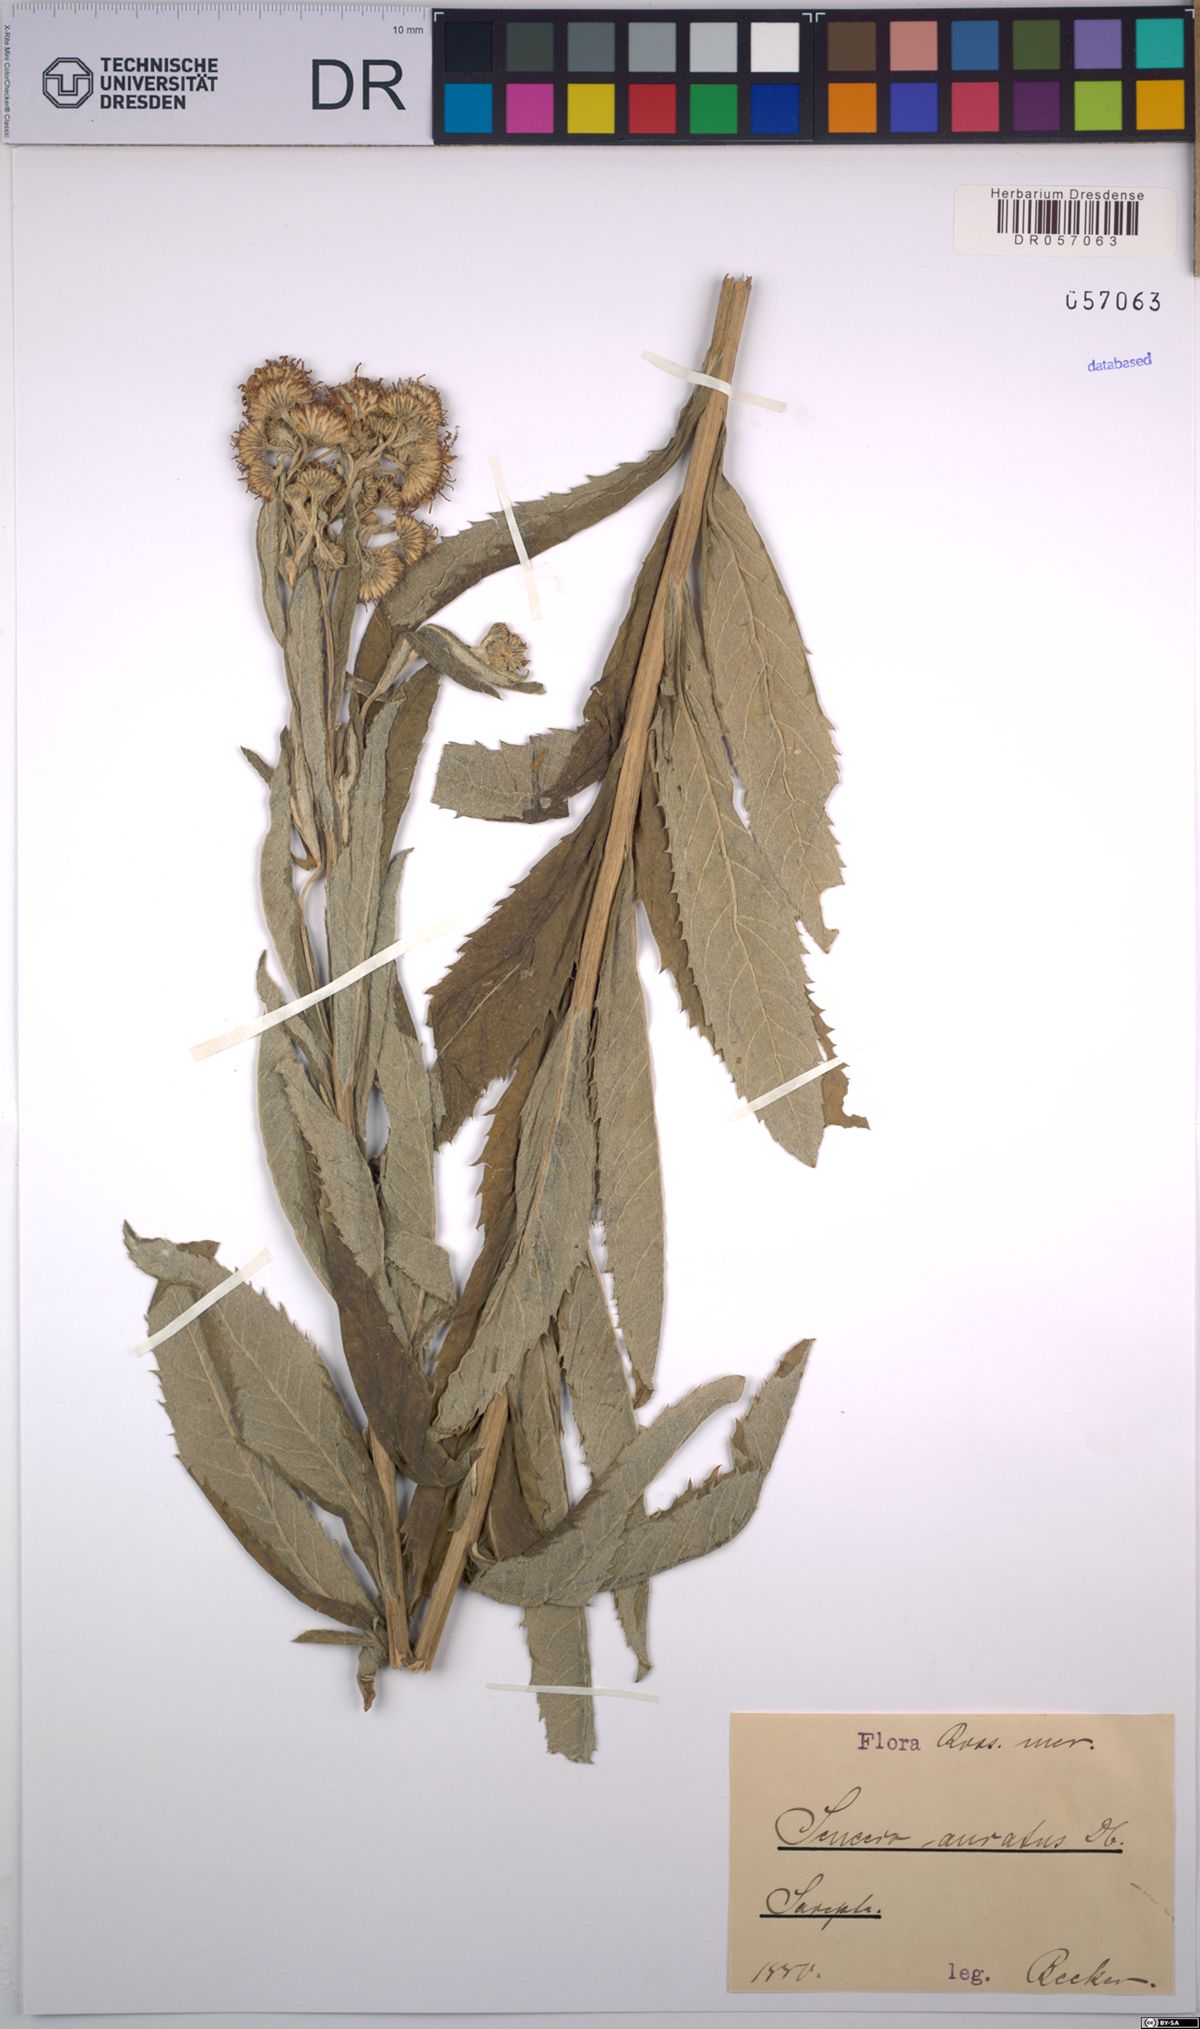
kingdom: Plantae
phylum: Tracheophyta
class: Magnoliopsida
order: Asterales
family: Asteraceae
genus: Jacobaea
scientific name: Jacobaea paludosa
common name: Fen ragwort
